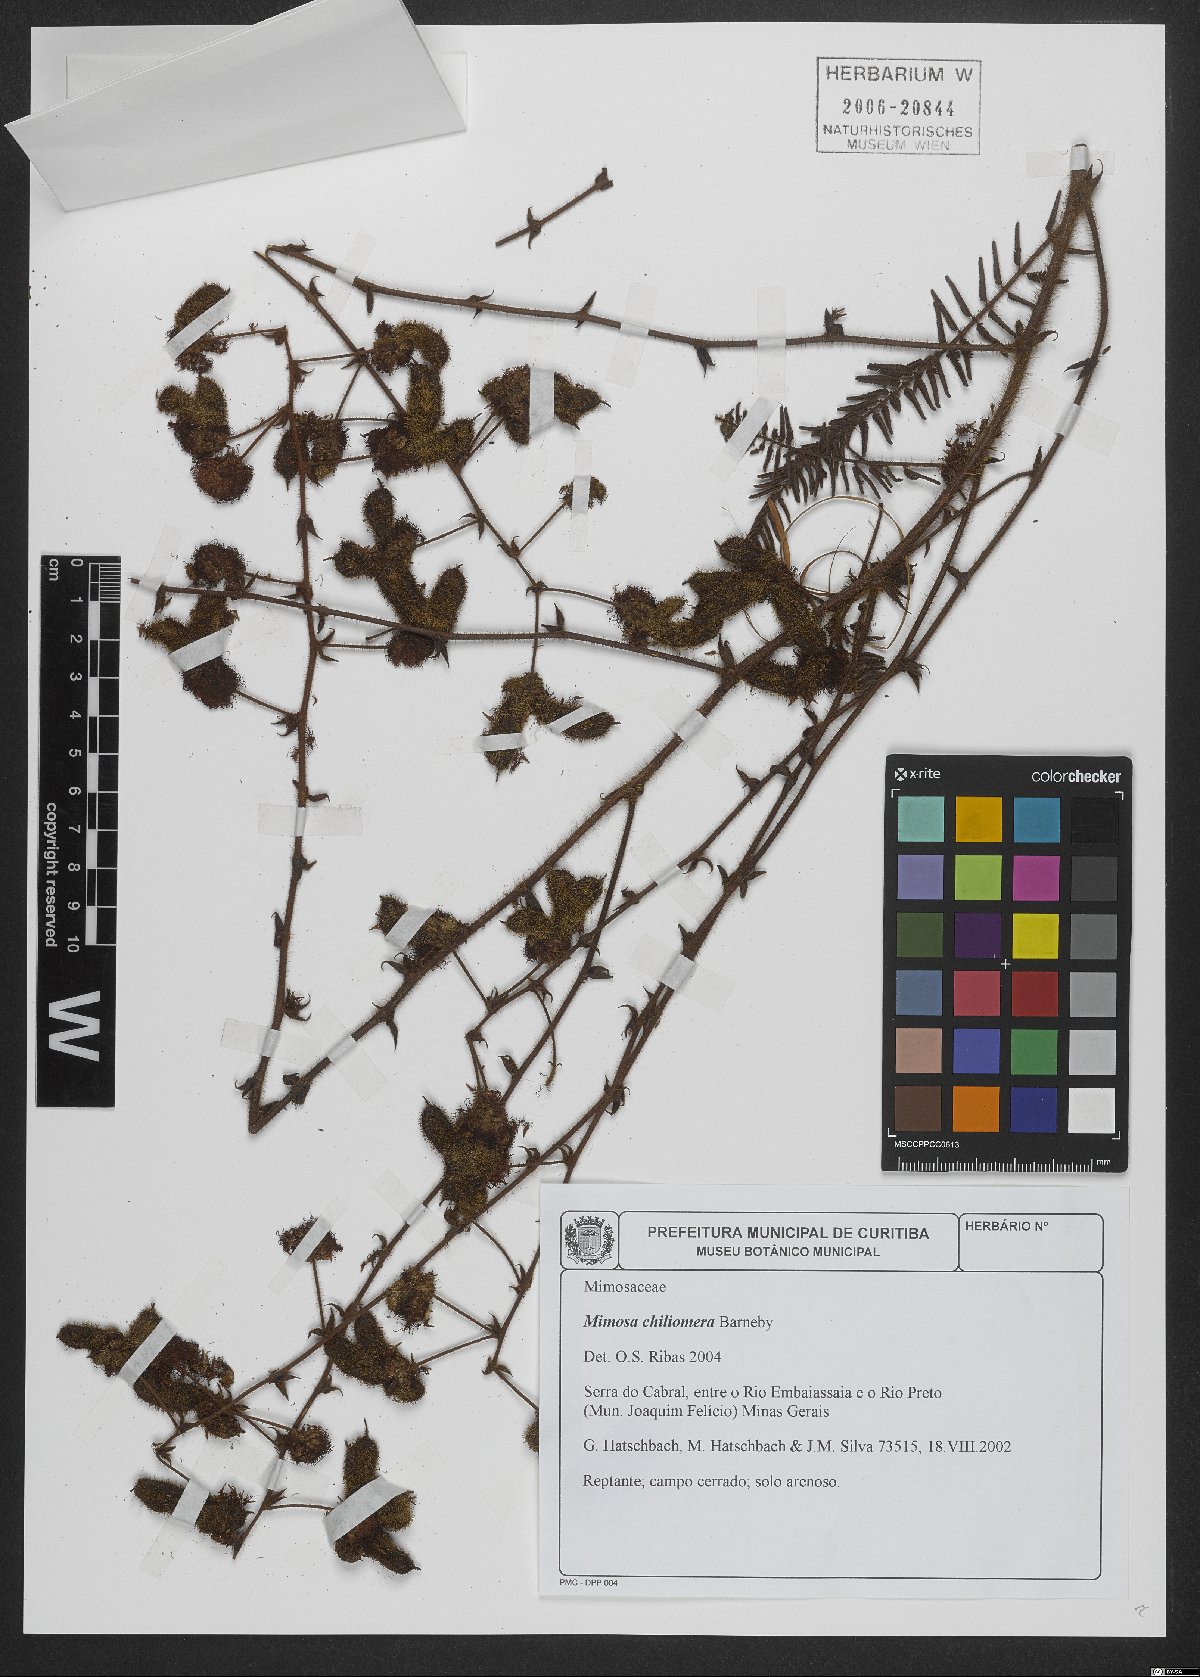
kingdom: Plantae
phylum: Tracheophyta
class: Magnoliopsida
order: Fabales
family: Fabaceae
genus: Mimosa
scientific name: Mimosa chiliomera
